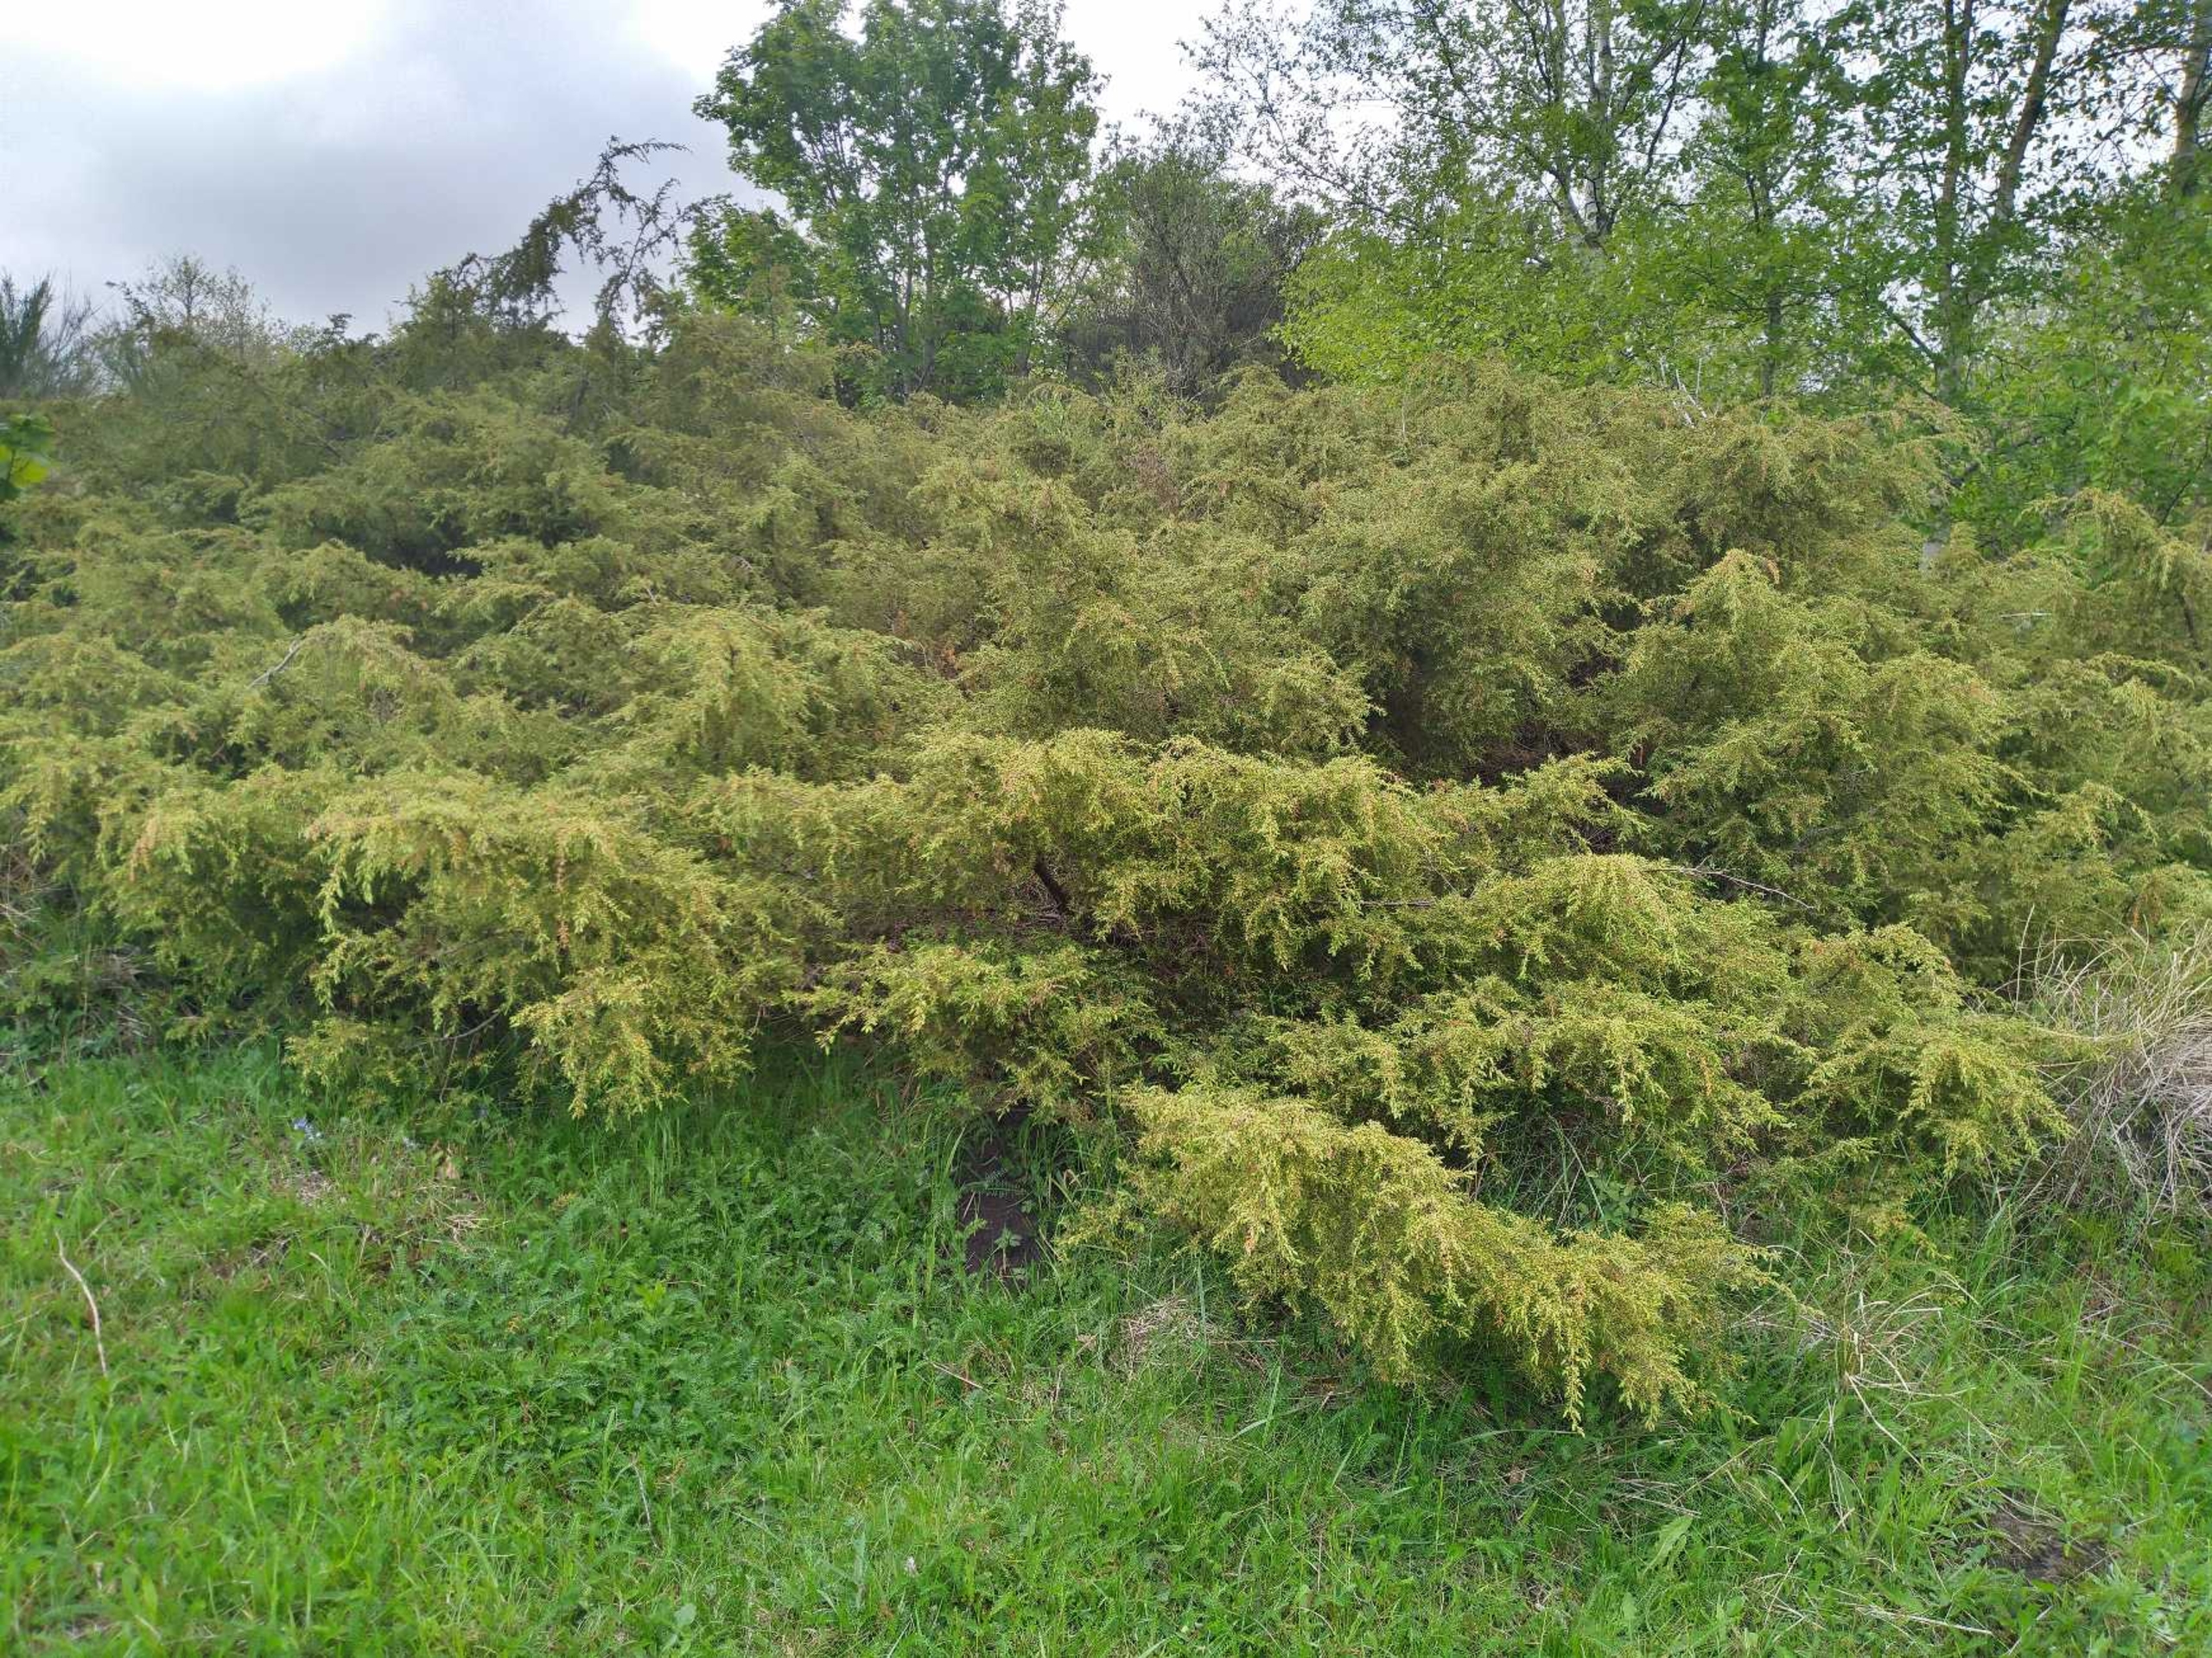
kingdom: Plantae
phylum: Tracheophyta
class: Pinopsida
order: Pinales
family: Cupressaceae
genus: Juniperus
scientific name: Juniperus communis
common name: Almindelig ene
